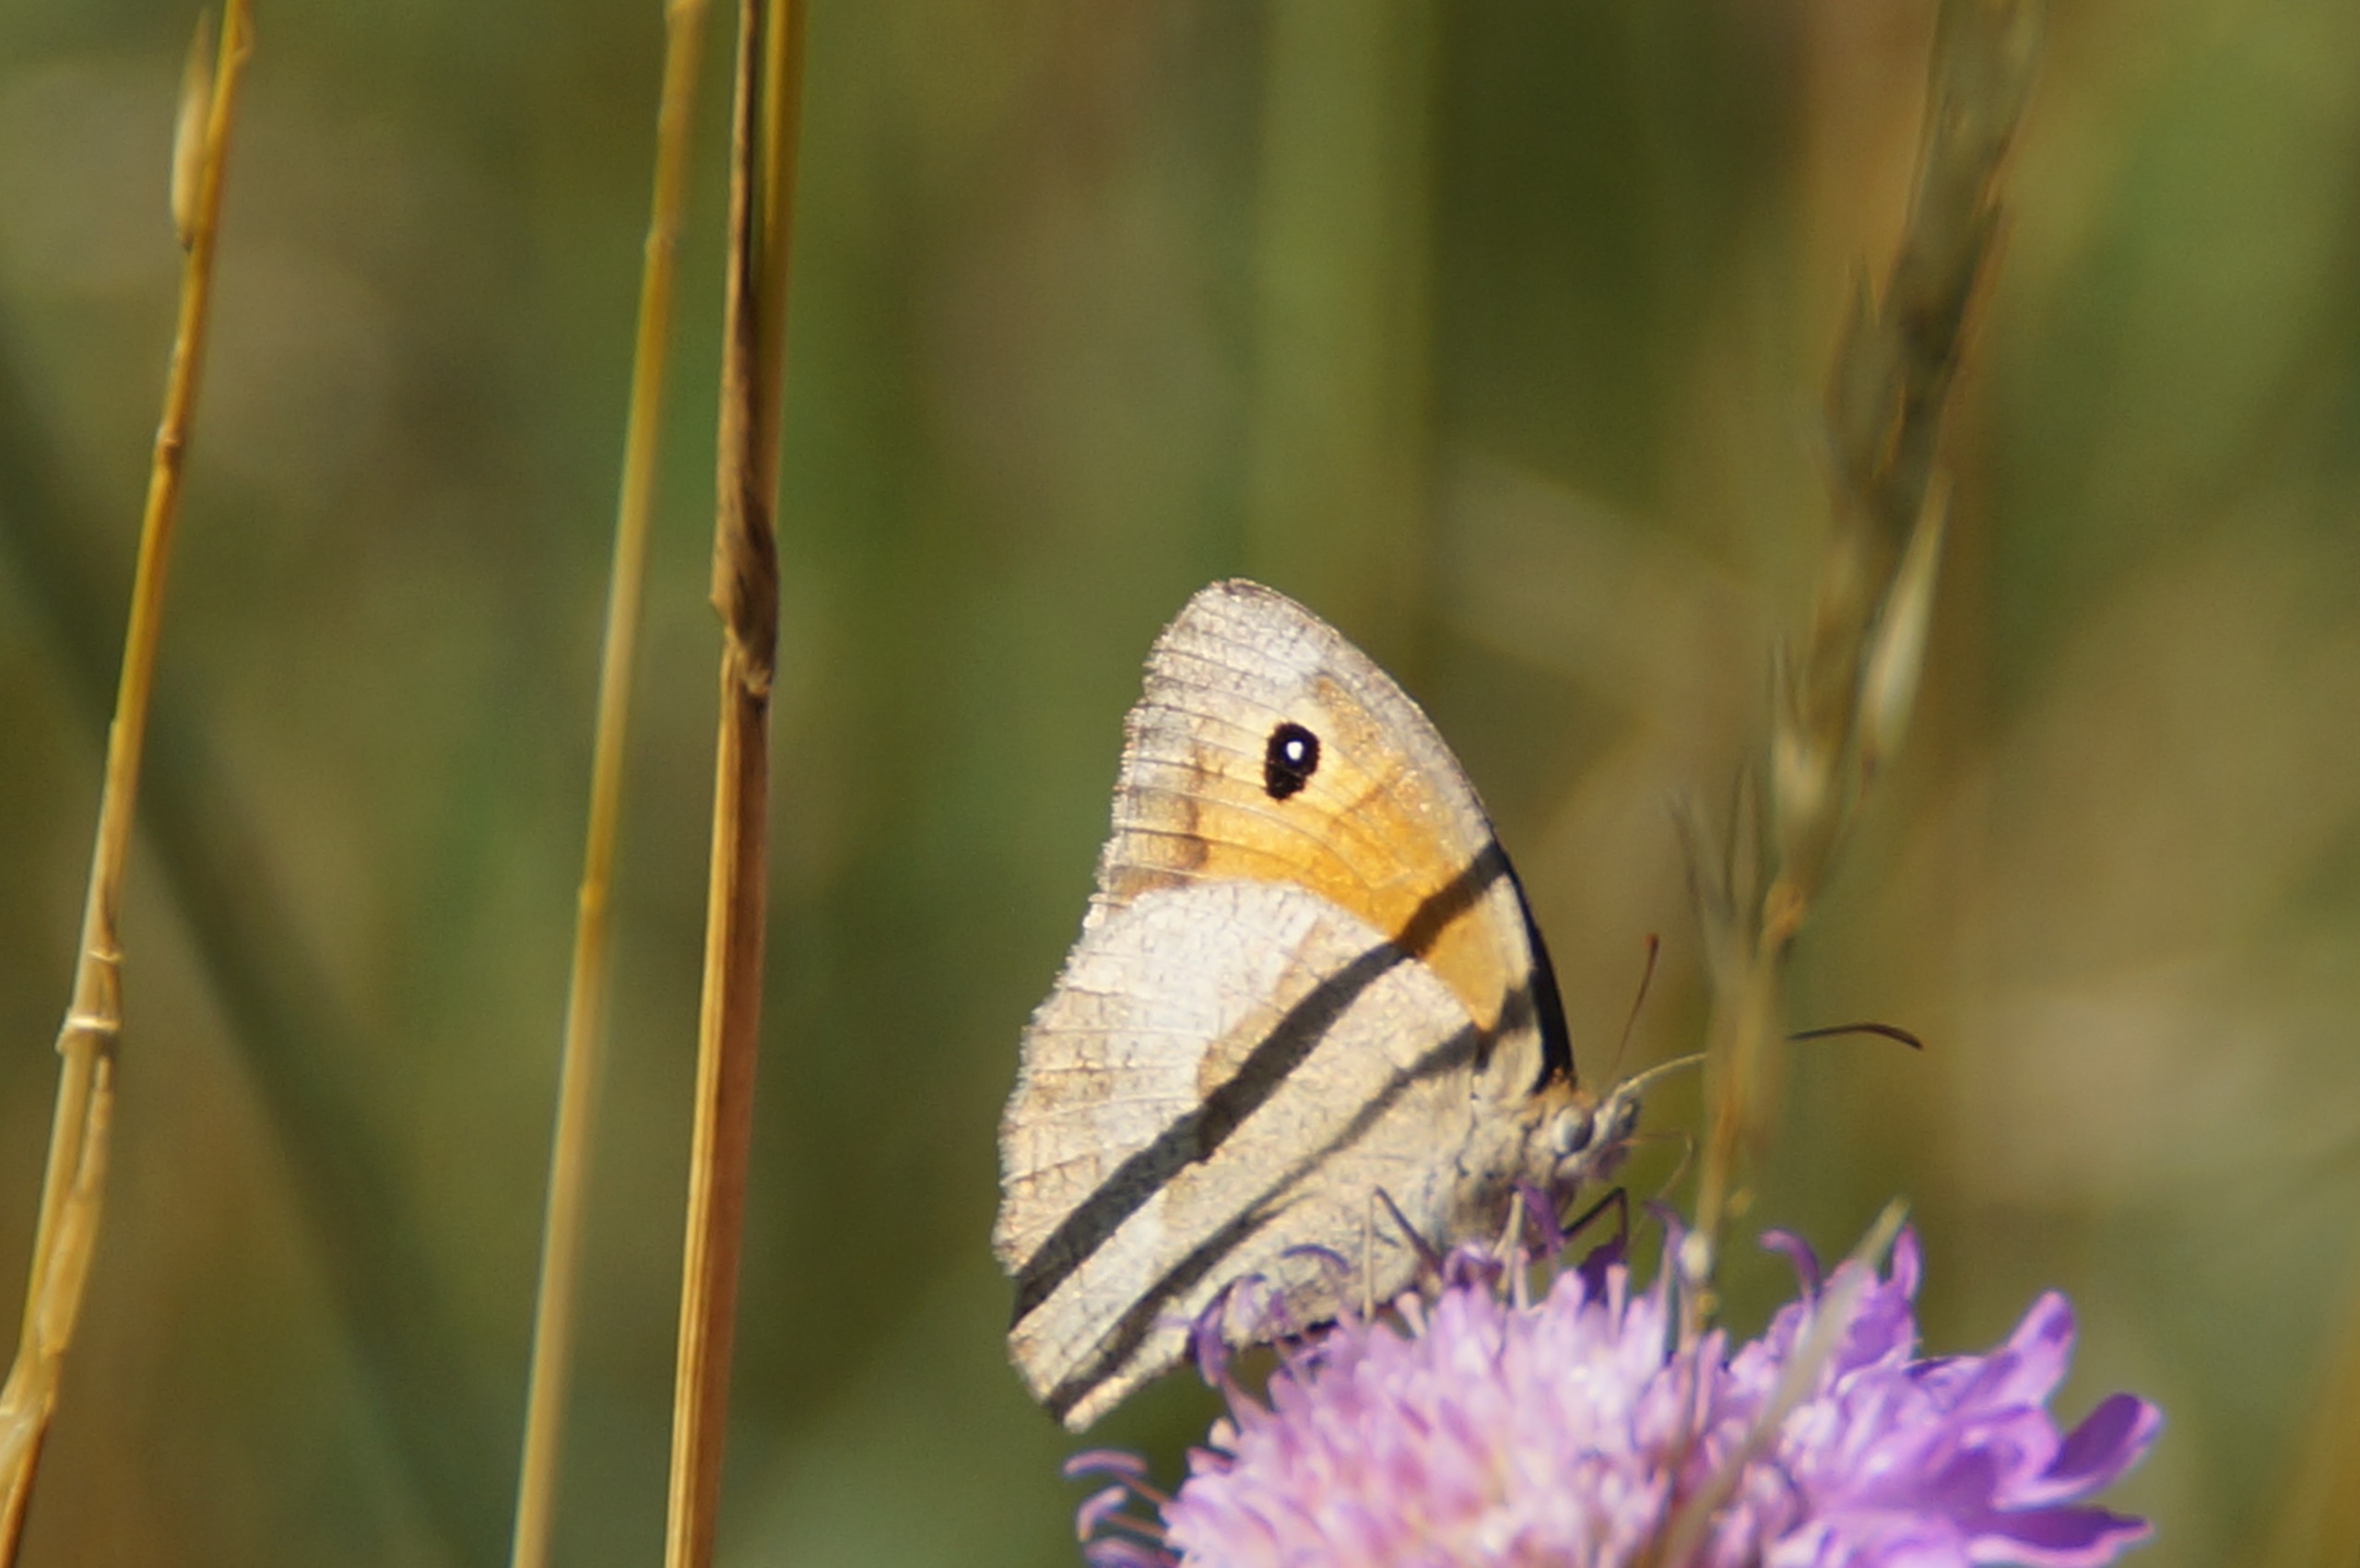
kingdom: Animalia
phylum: Arthropoda
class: Insecta
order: Lepidoptera
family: Nymphalidae
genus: Maniola
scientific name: Maniola jurtina
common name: Græsrandøje
